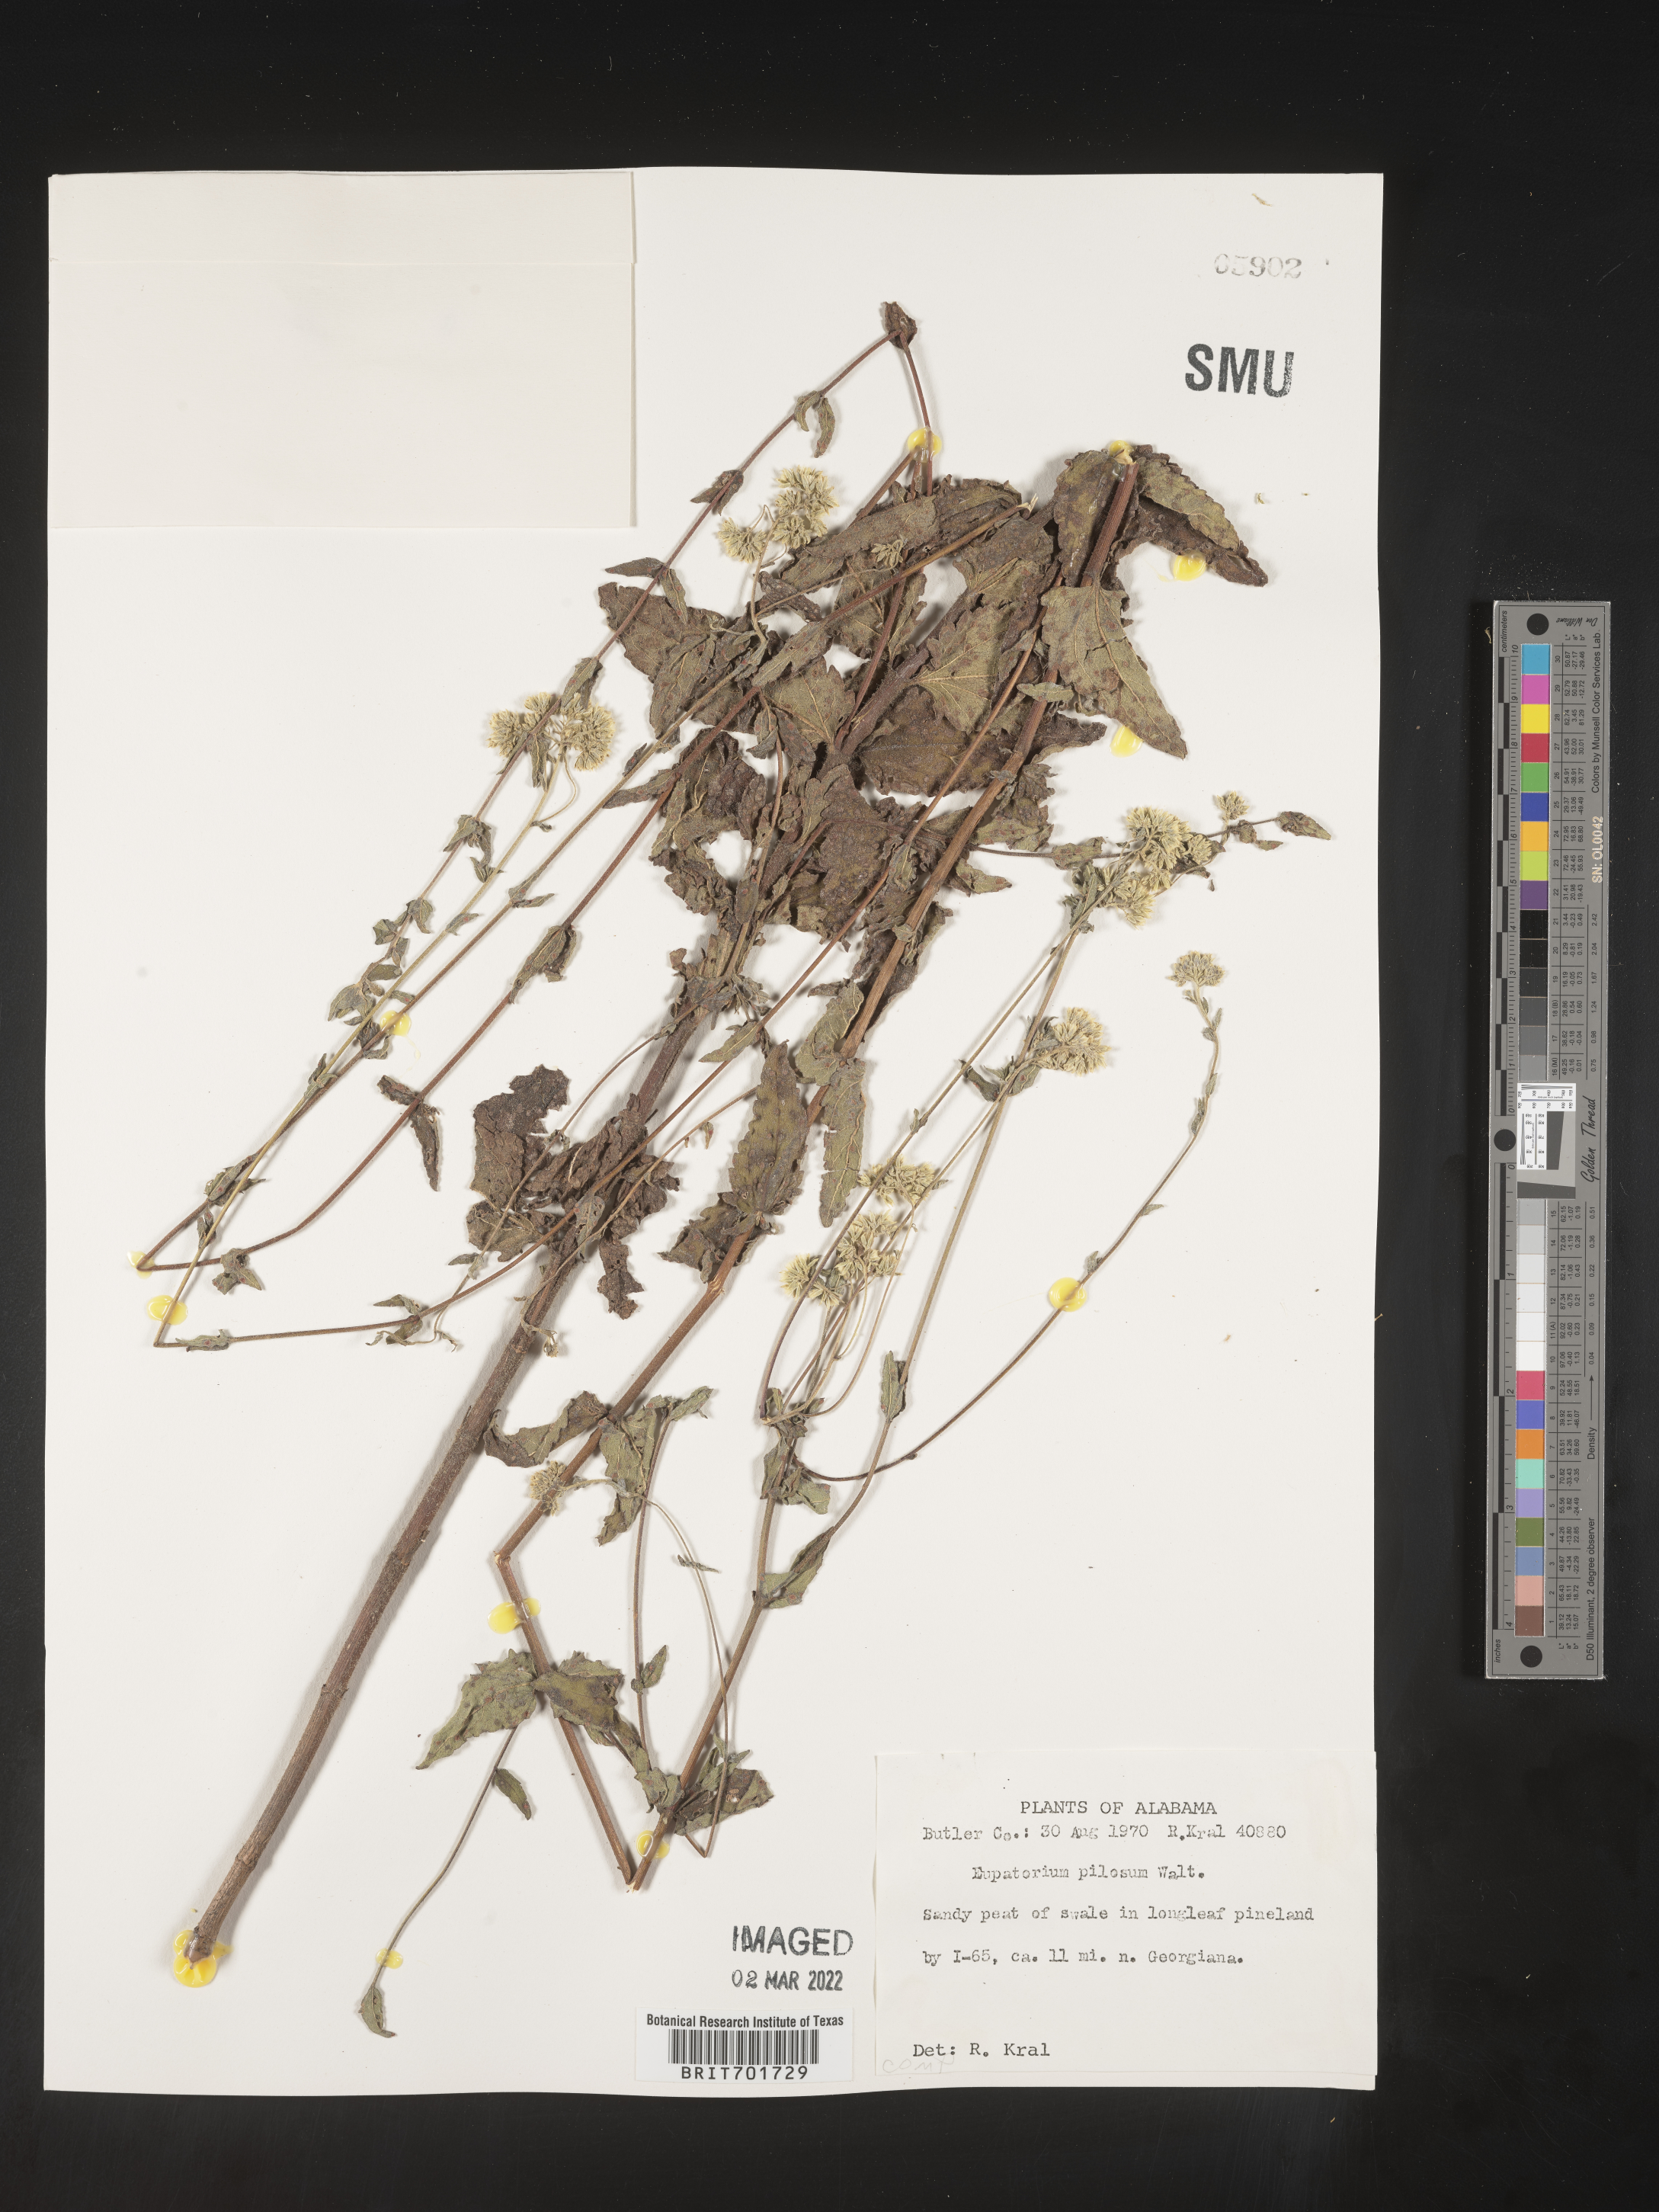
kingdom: Plantae
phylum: Tracheophyta
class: Magnoliopsida
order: Asterales
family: Asteraceae
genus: Eupatorium
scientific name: Eupatorium pilosum
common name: Rough boneset
